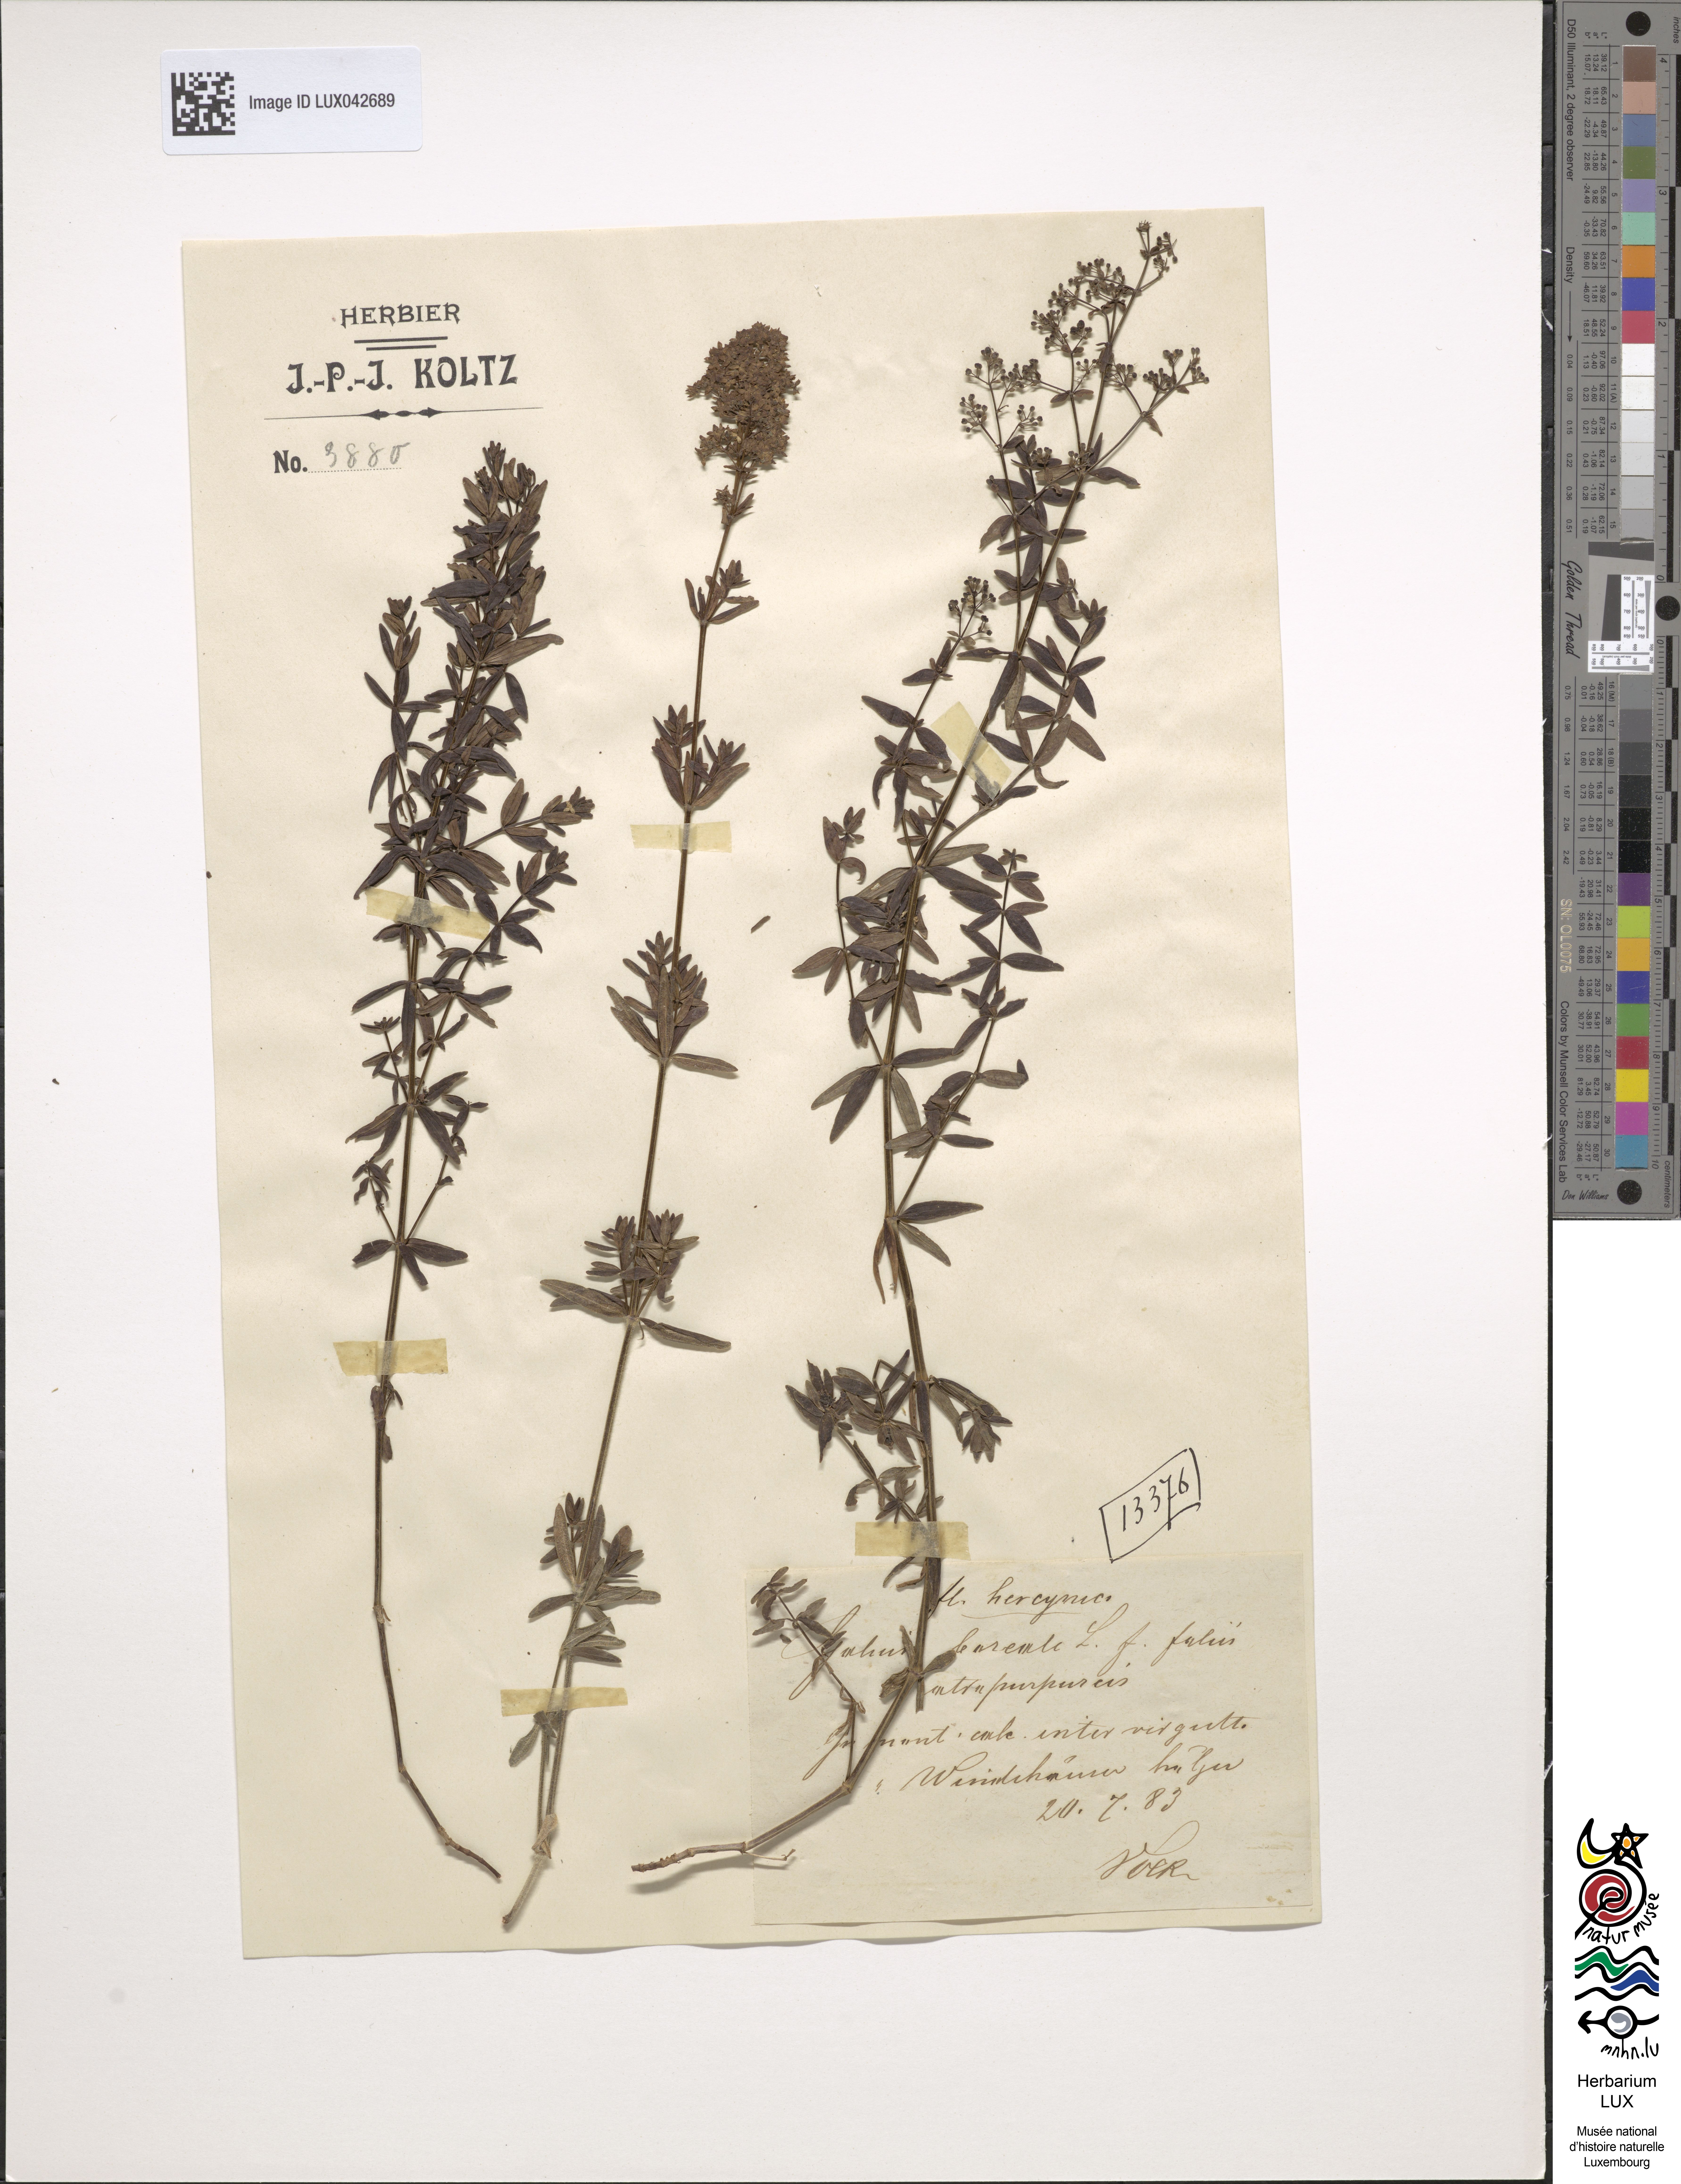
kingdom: Plantae
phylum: Tracheophyta
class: Magnoliopsida
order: Gentianales
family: Rubiaceae
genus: Galium
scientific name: Galium boreale
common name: Northern bedstraw
